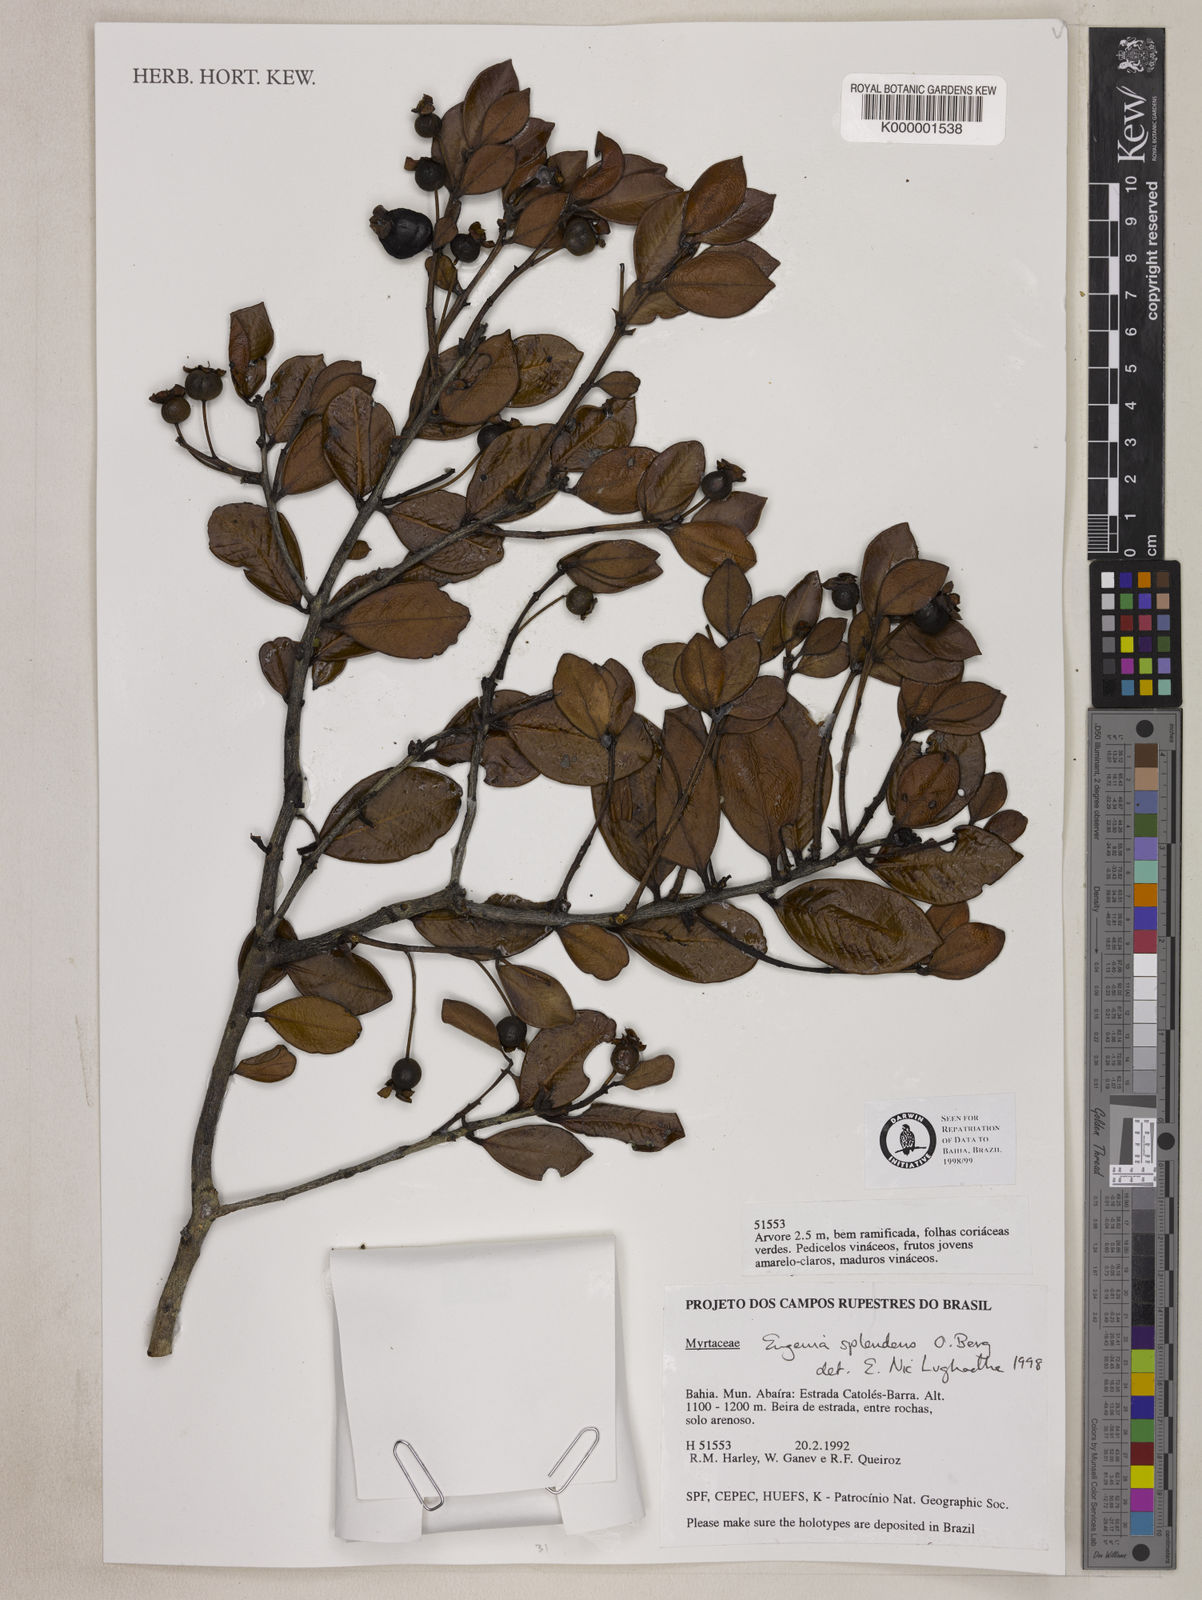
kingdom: Plantae
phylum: Tracheophyta
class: Magnoliopsida
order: Myrtales
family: Myrtaceae
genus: Eugenia
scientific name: Eugenia splendens
